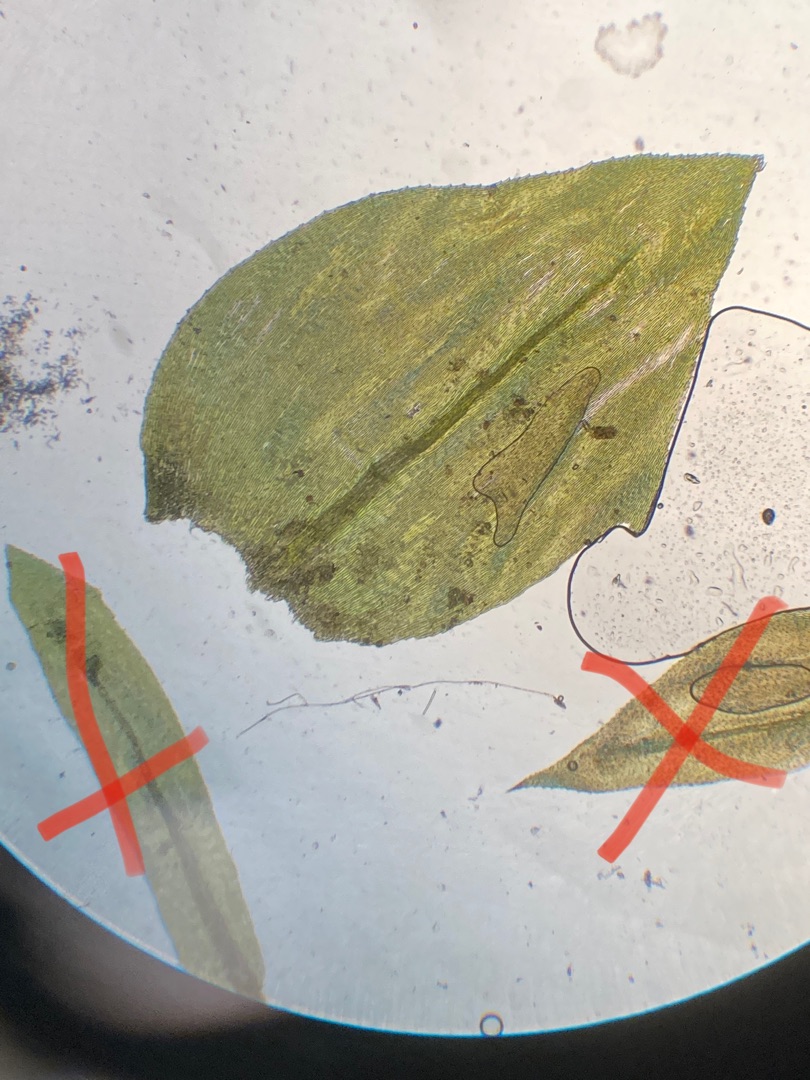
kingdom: Plantae
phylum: Bryophyta
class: Bryopsida
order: Hypnales
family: Brachytheciaceae
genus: Eurhynchium
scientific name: Eurhynchium angustirete
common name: Stor næbmos
